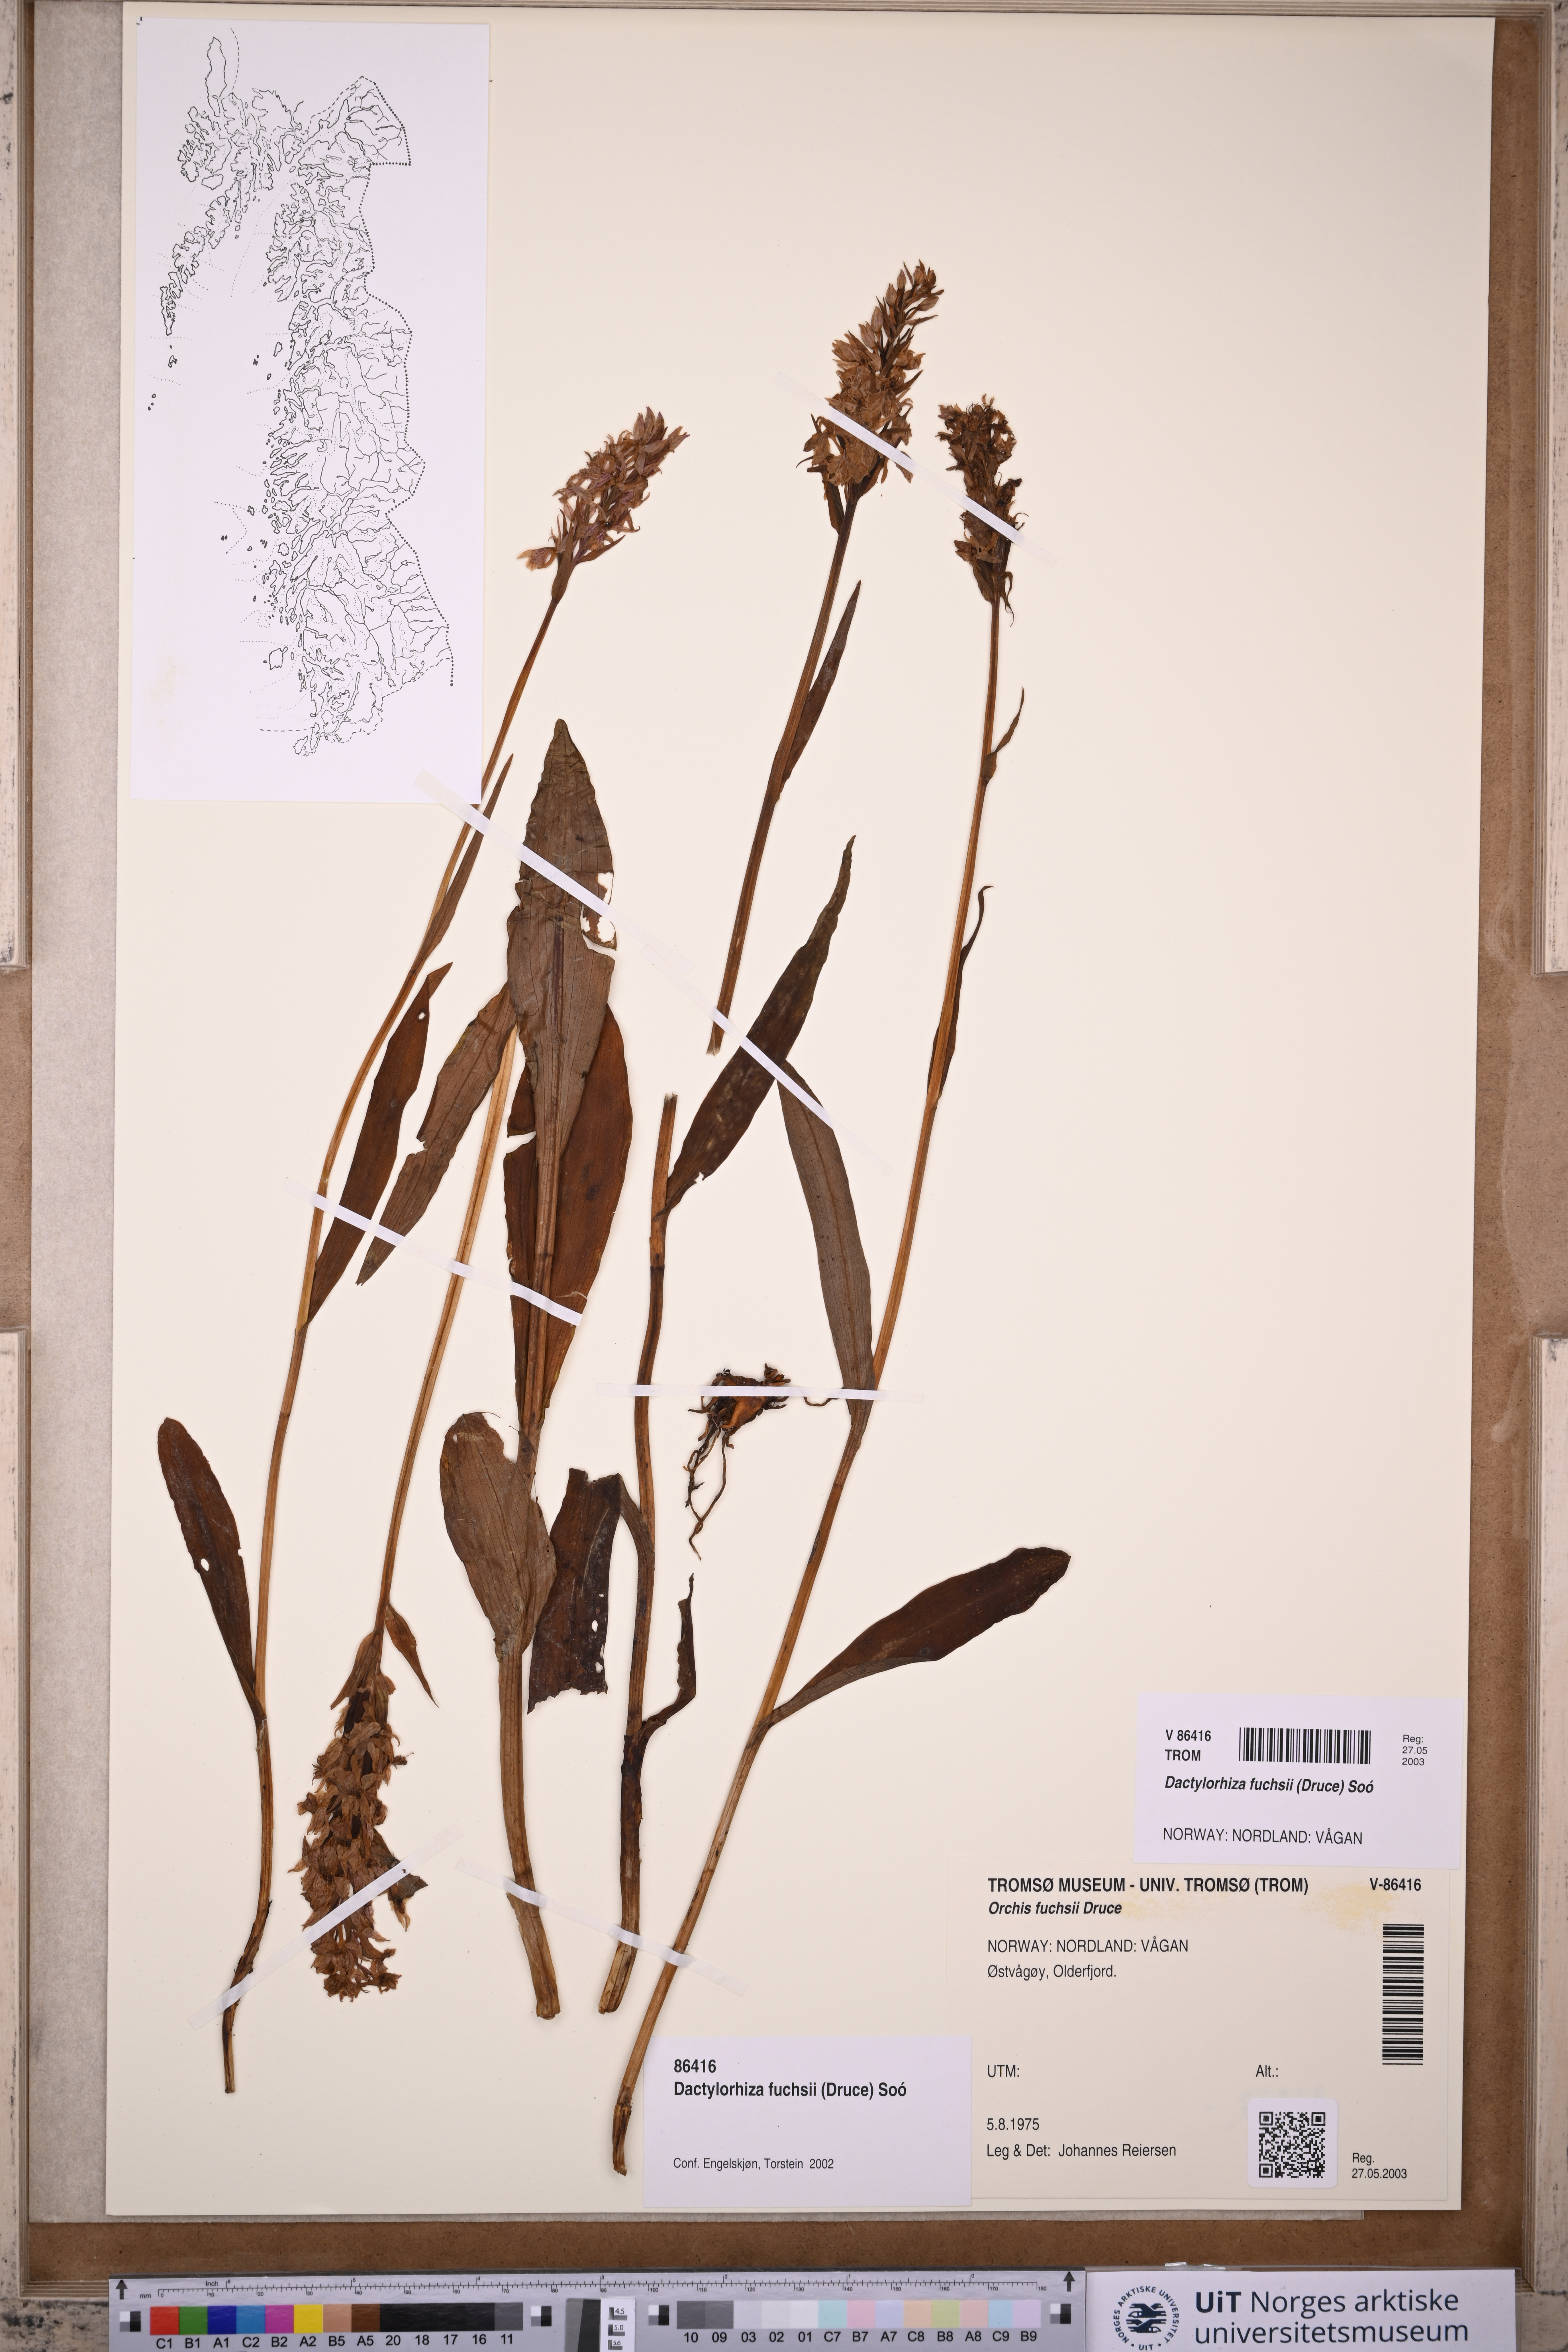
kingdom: Plantae
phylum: Tracheophyta
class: Liliopsida
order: Asparagales
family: Orchidaceae
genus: Dactylorhiza
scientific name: Dactylorhiza maculata
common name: Heath spotted-orchid
